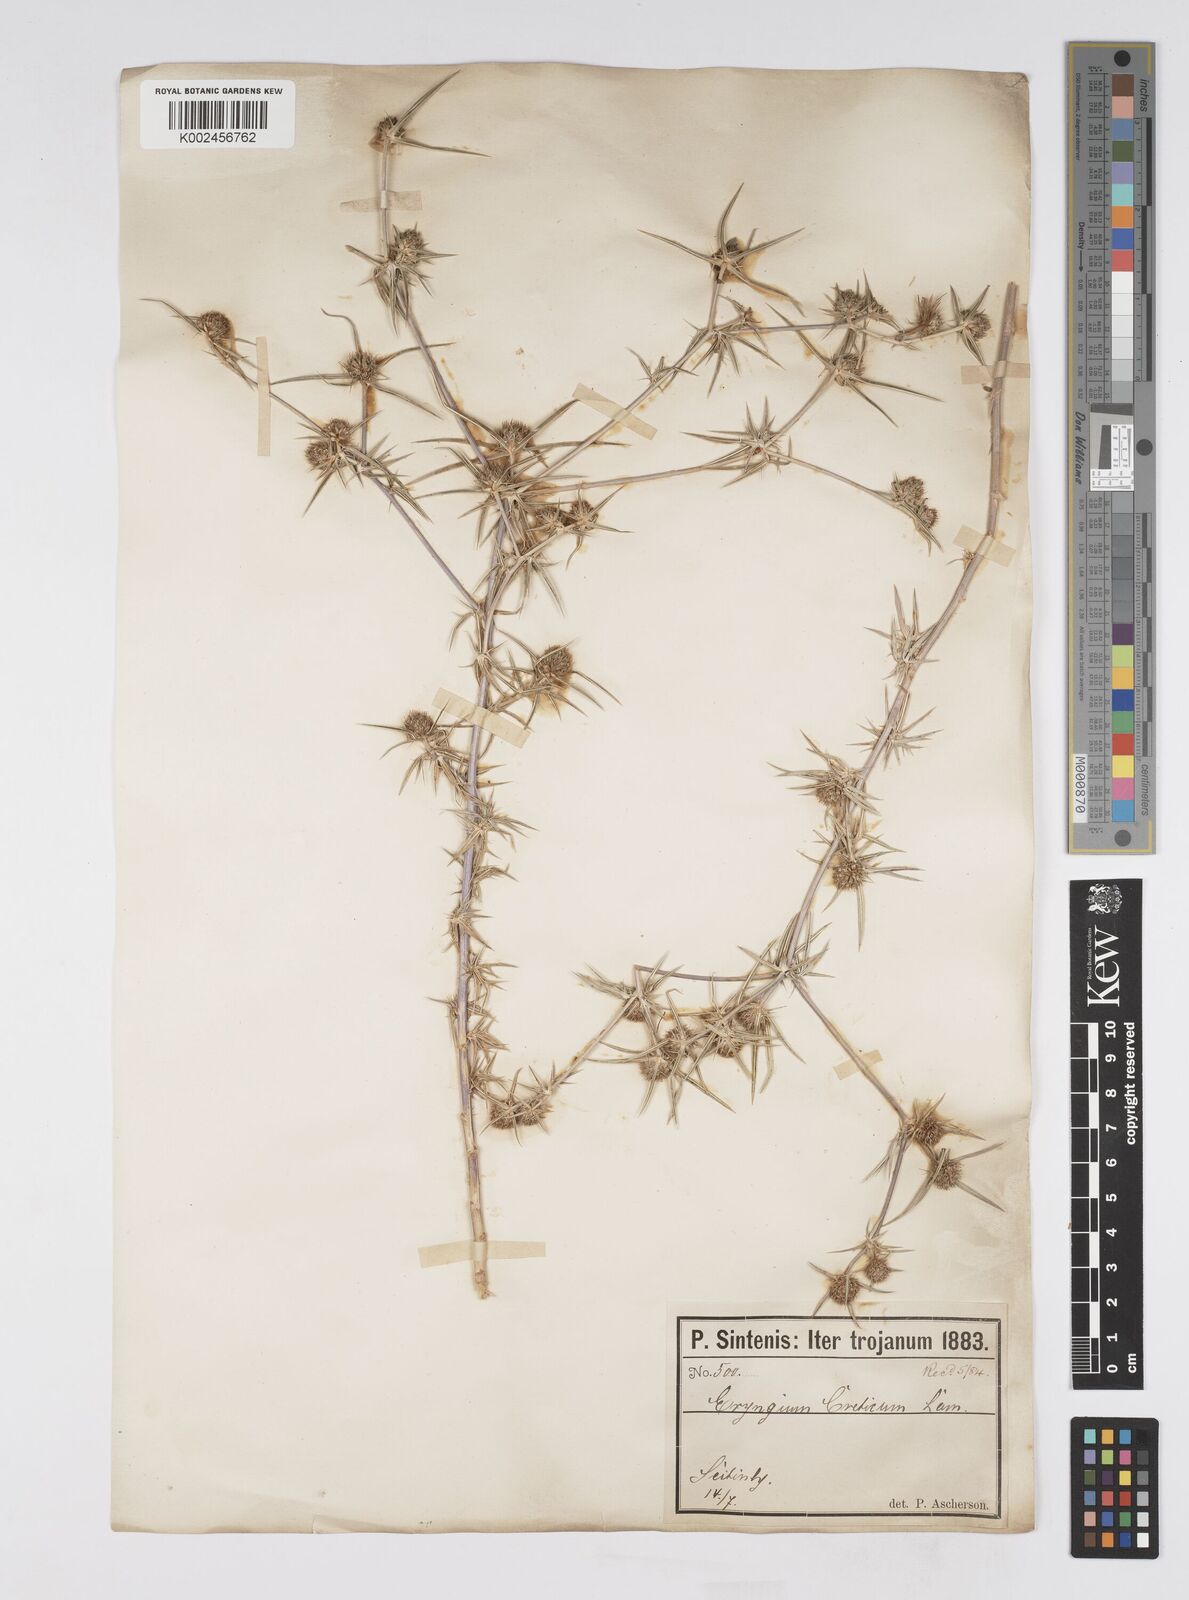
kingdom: Plantae
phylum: Tracheophyta
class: Magnoliopsida
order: Apiales
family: Apiaceae
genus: Eryngium
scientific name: Eryngium creticum
